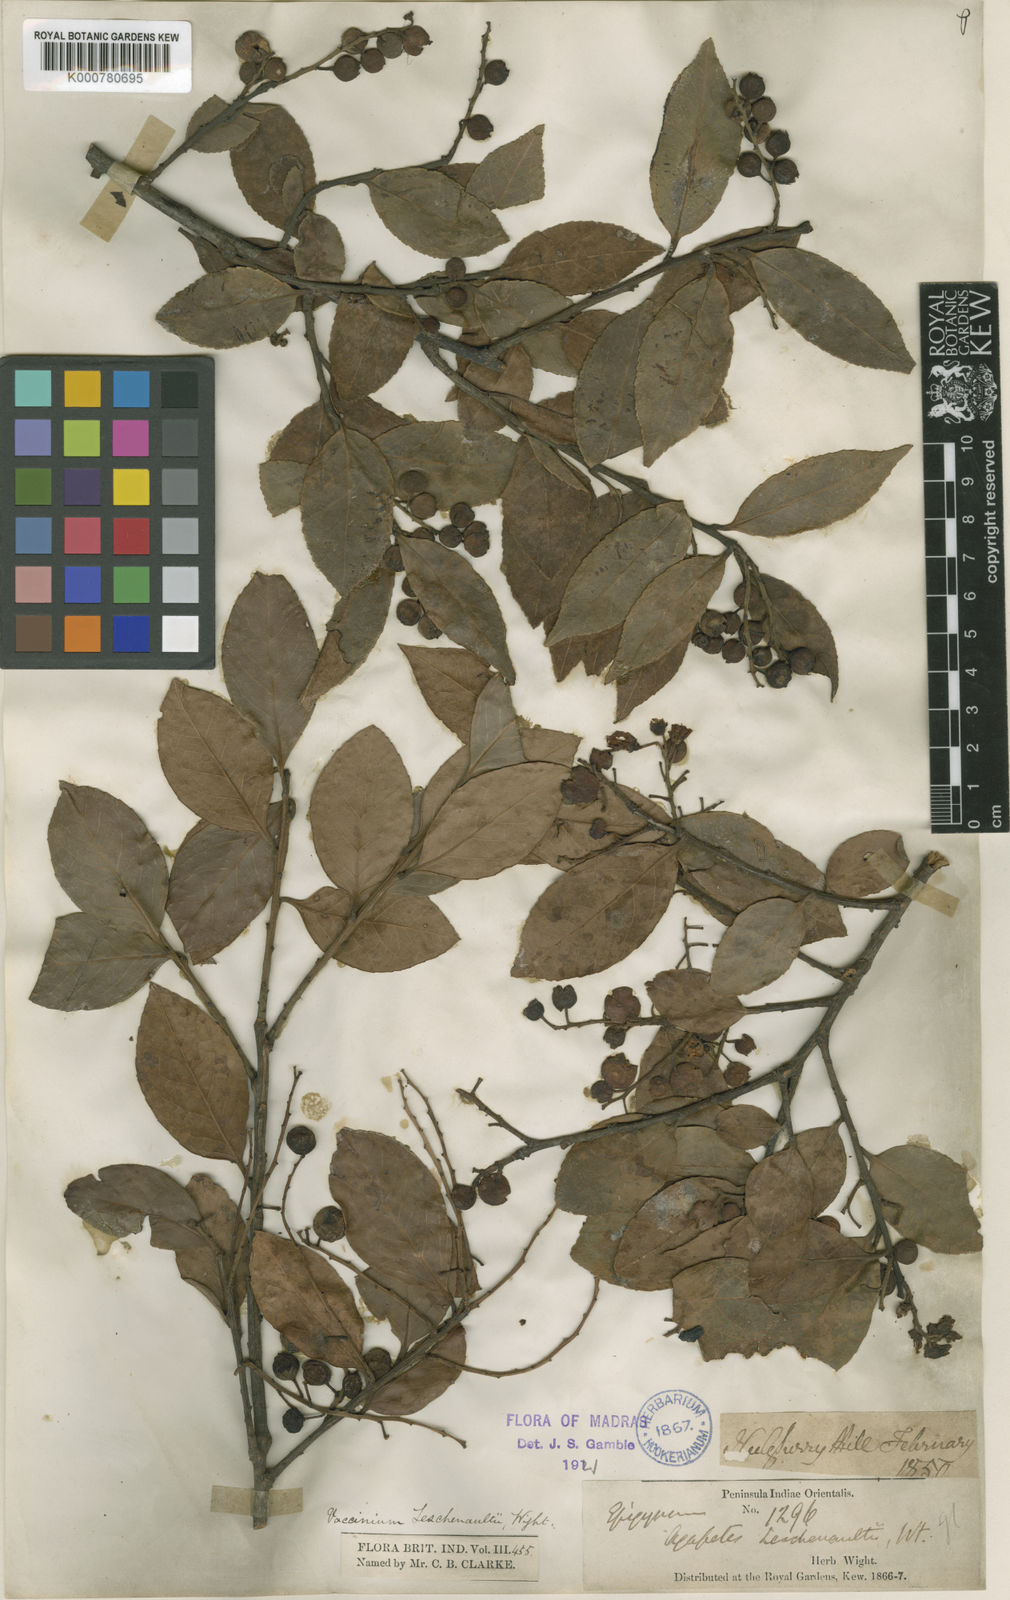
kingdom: Plantae
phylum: Tracheophyta
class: Magnoliopsida
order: Ericales
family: Ericaceae
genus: Vaccinium
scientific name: Vaccinium symplocifolium
